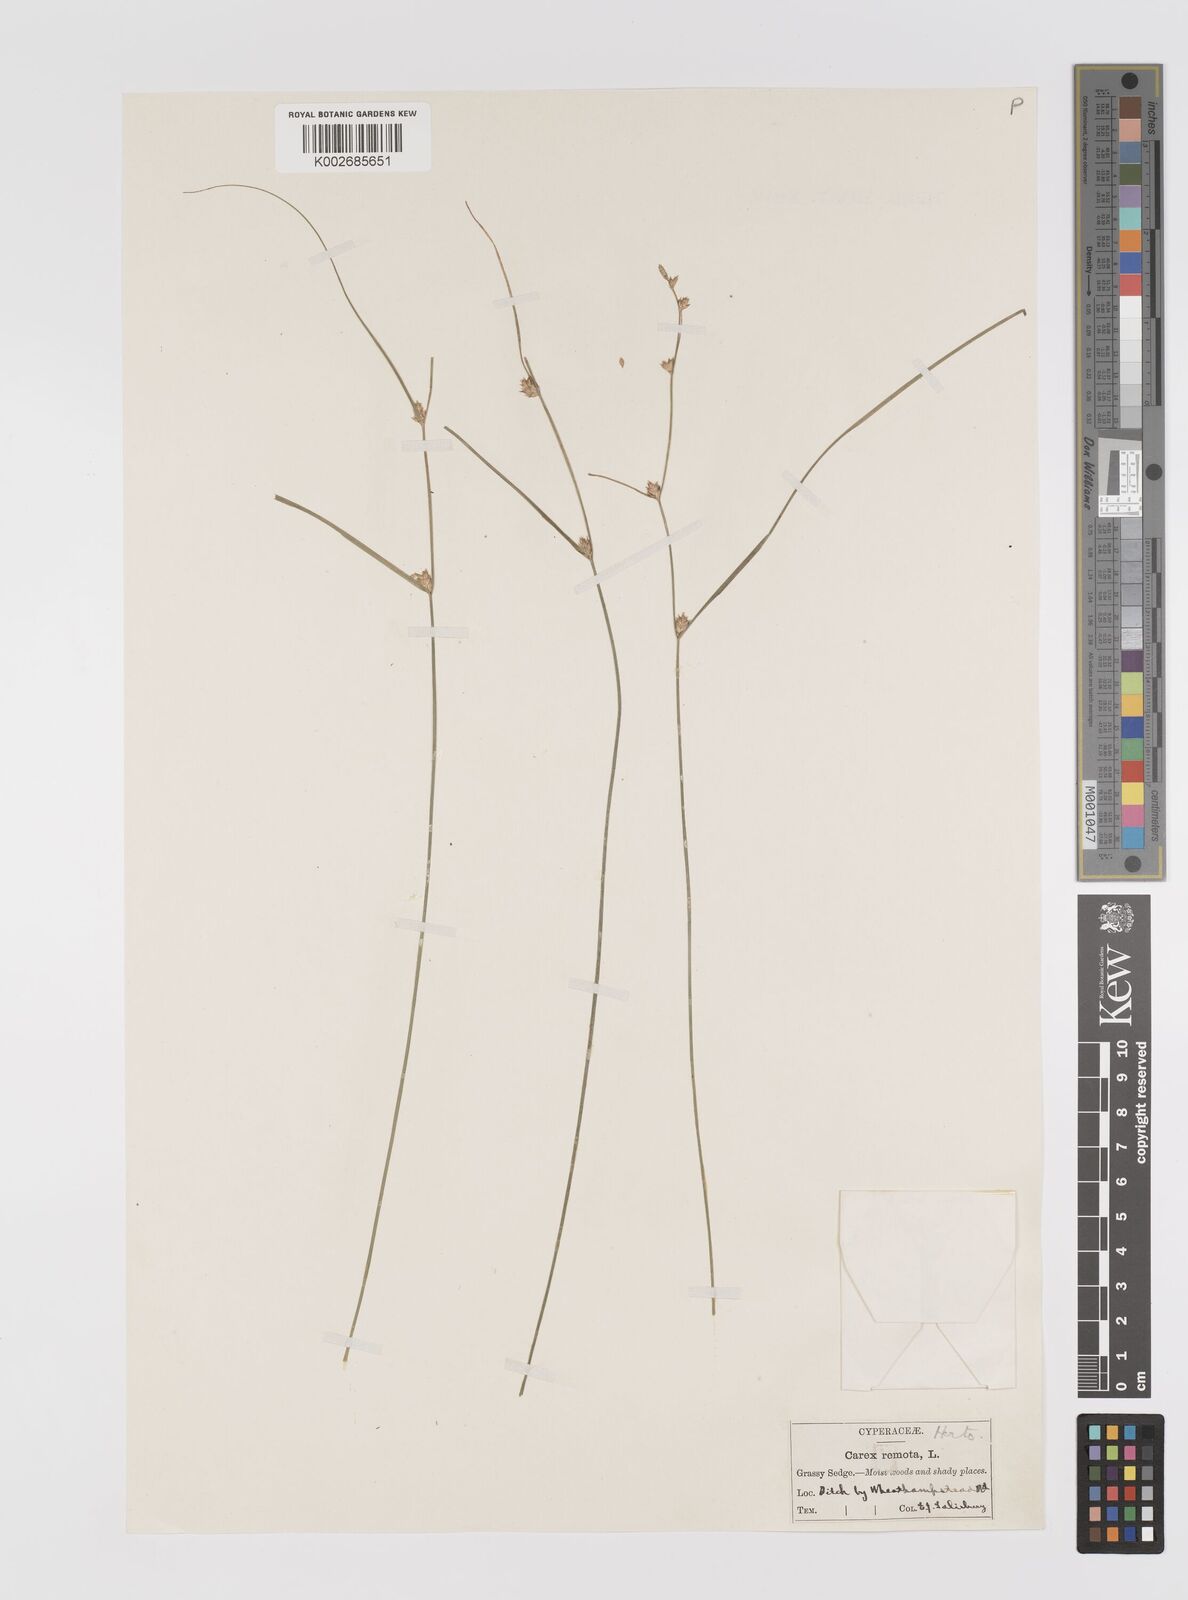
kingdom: Plantae
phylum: Tracheophyta
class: Liliopsida
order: Poales
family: Cyperaceae
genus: Carex
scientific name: Carex remota
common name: Remote sedge
